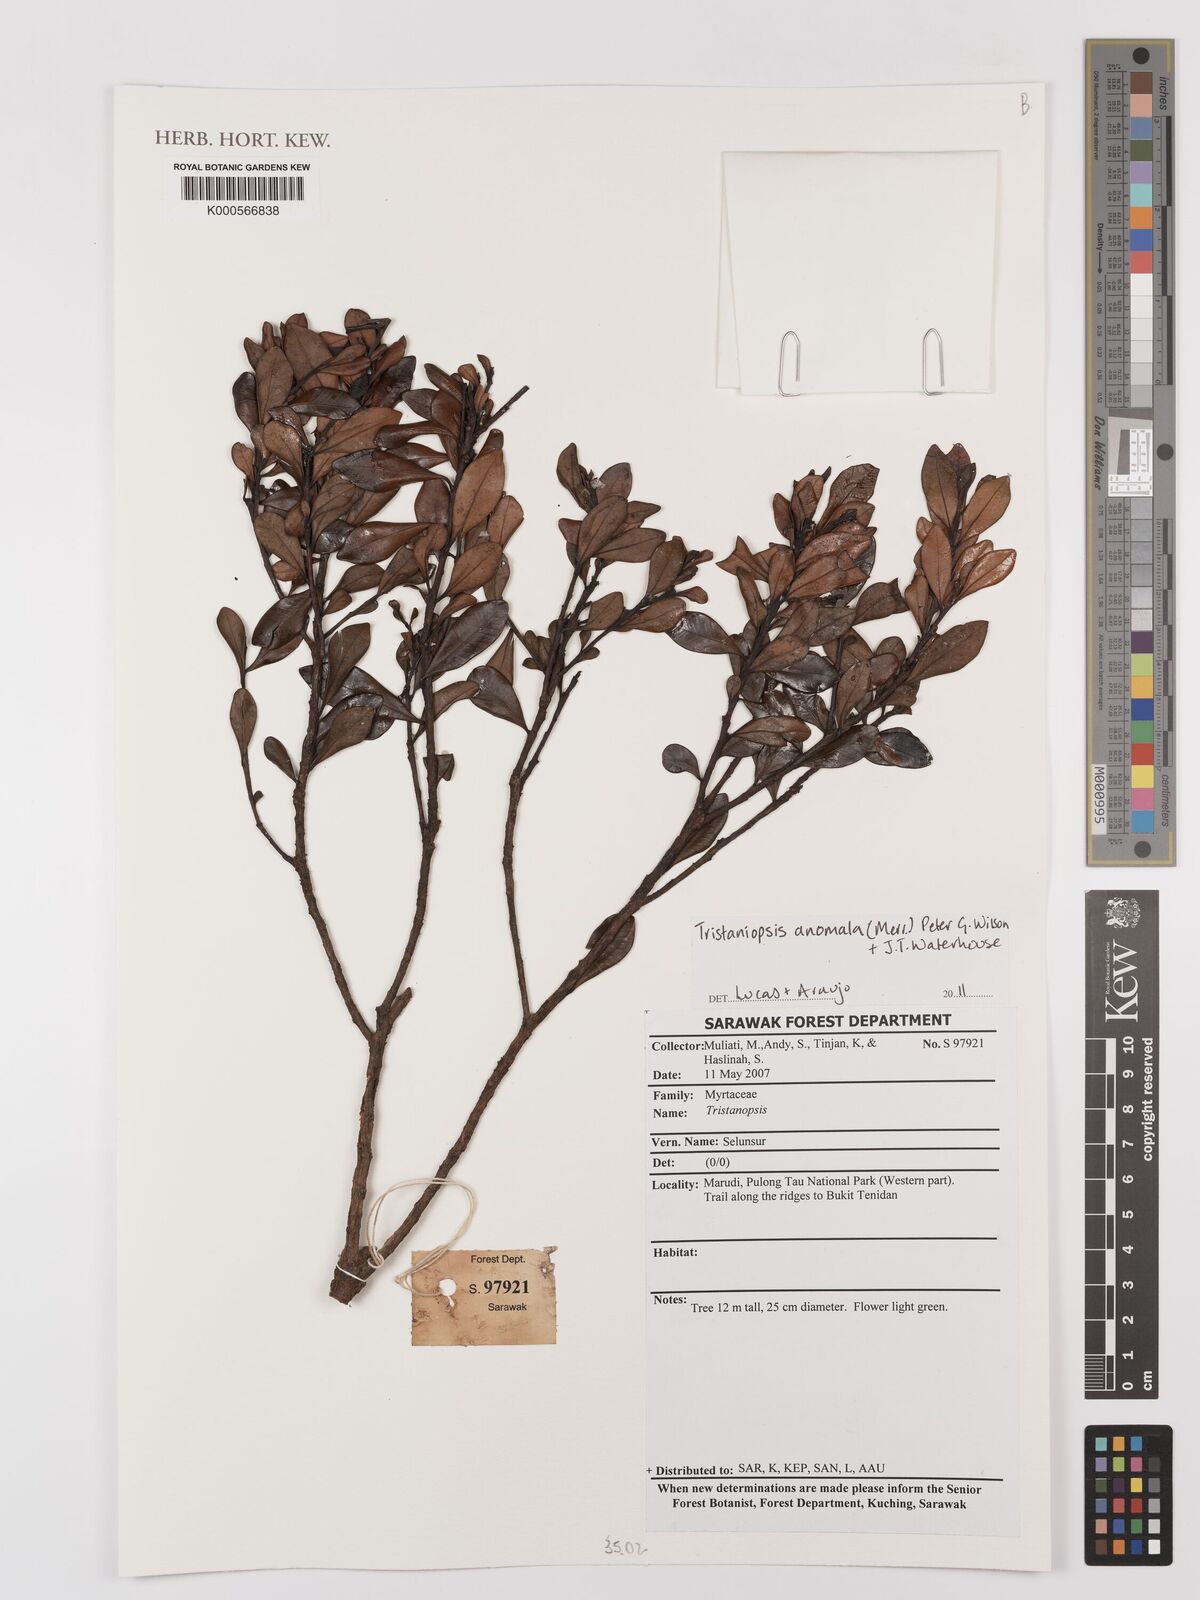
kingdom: Plantae
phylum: Tracheophyta
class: Magnoliopsida
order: Myrtales
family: Myrtaceae
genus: Tristaniopsis
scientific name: Tristaniopsis anomala
